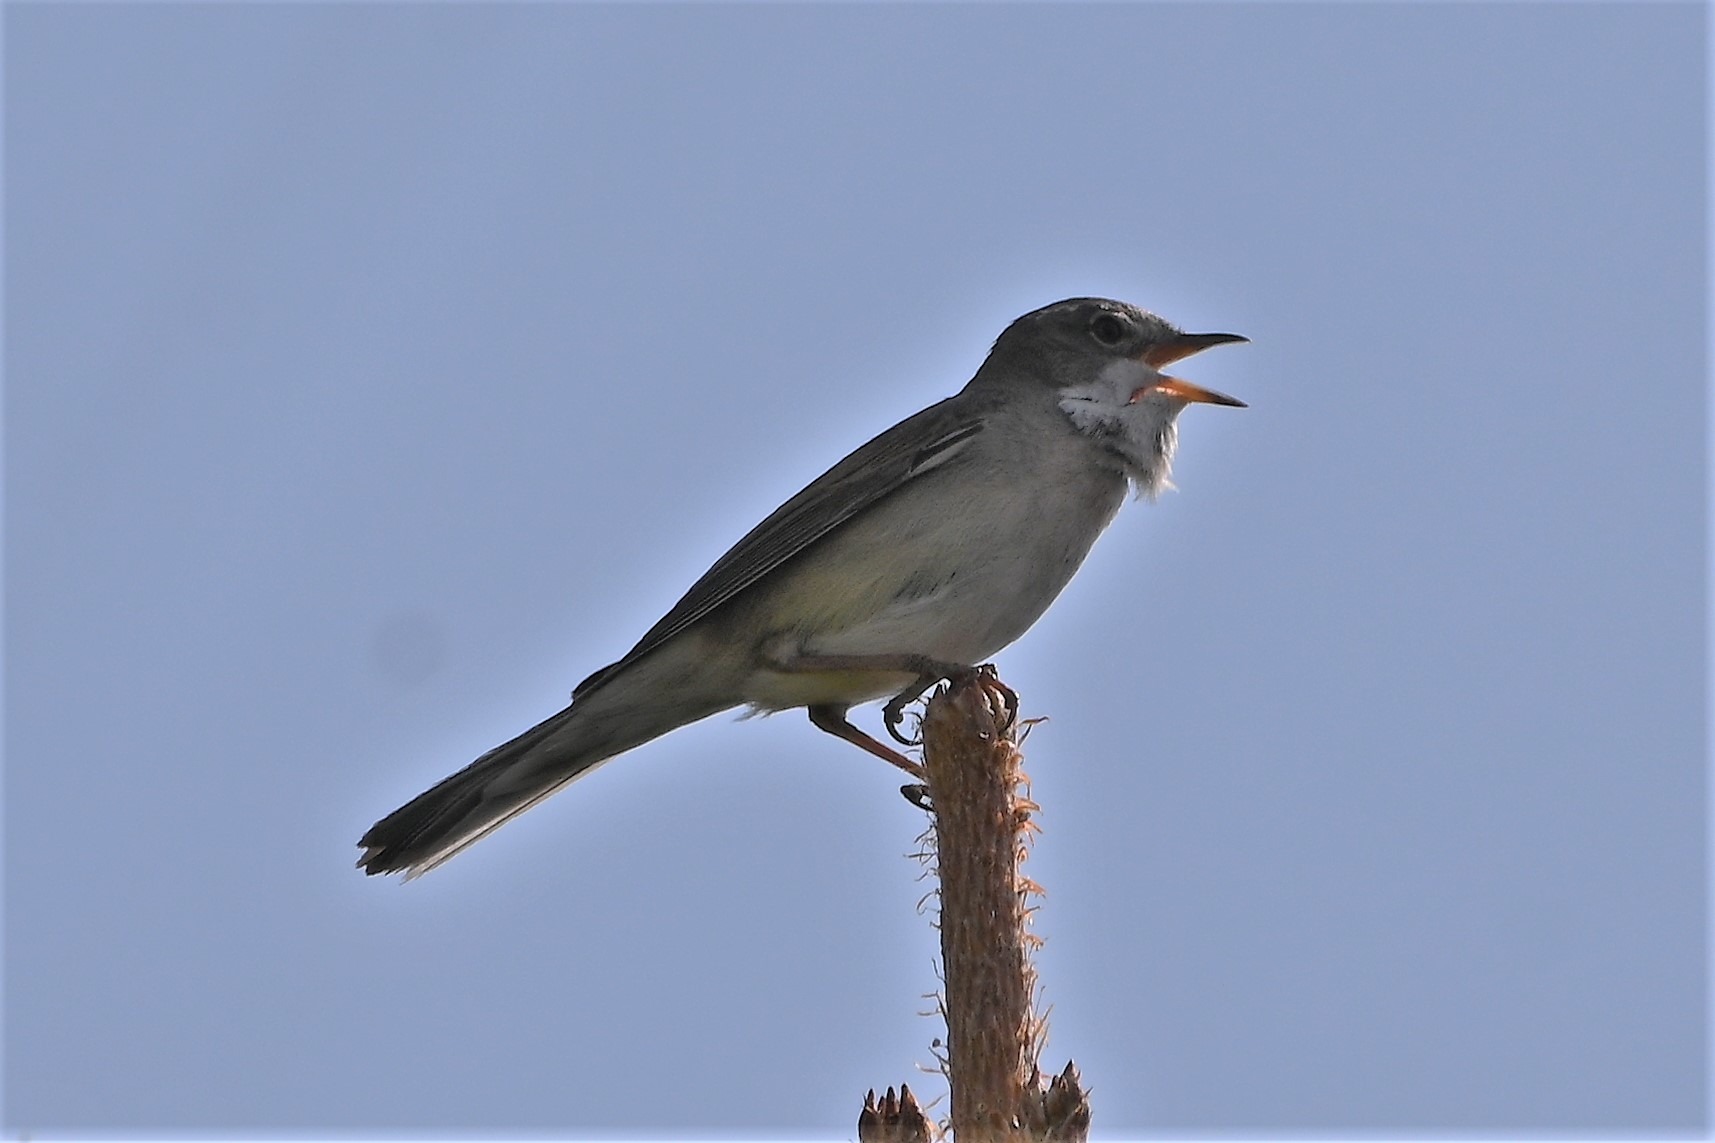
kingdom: Animalia
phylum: Chordata
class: Aves
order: Passeriformes
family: Sylviidae
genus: Sylvia
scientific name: Sylvia communis
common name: Tornsanger
